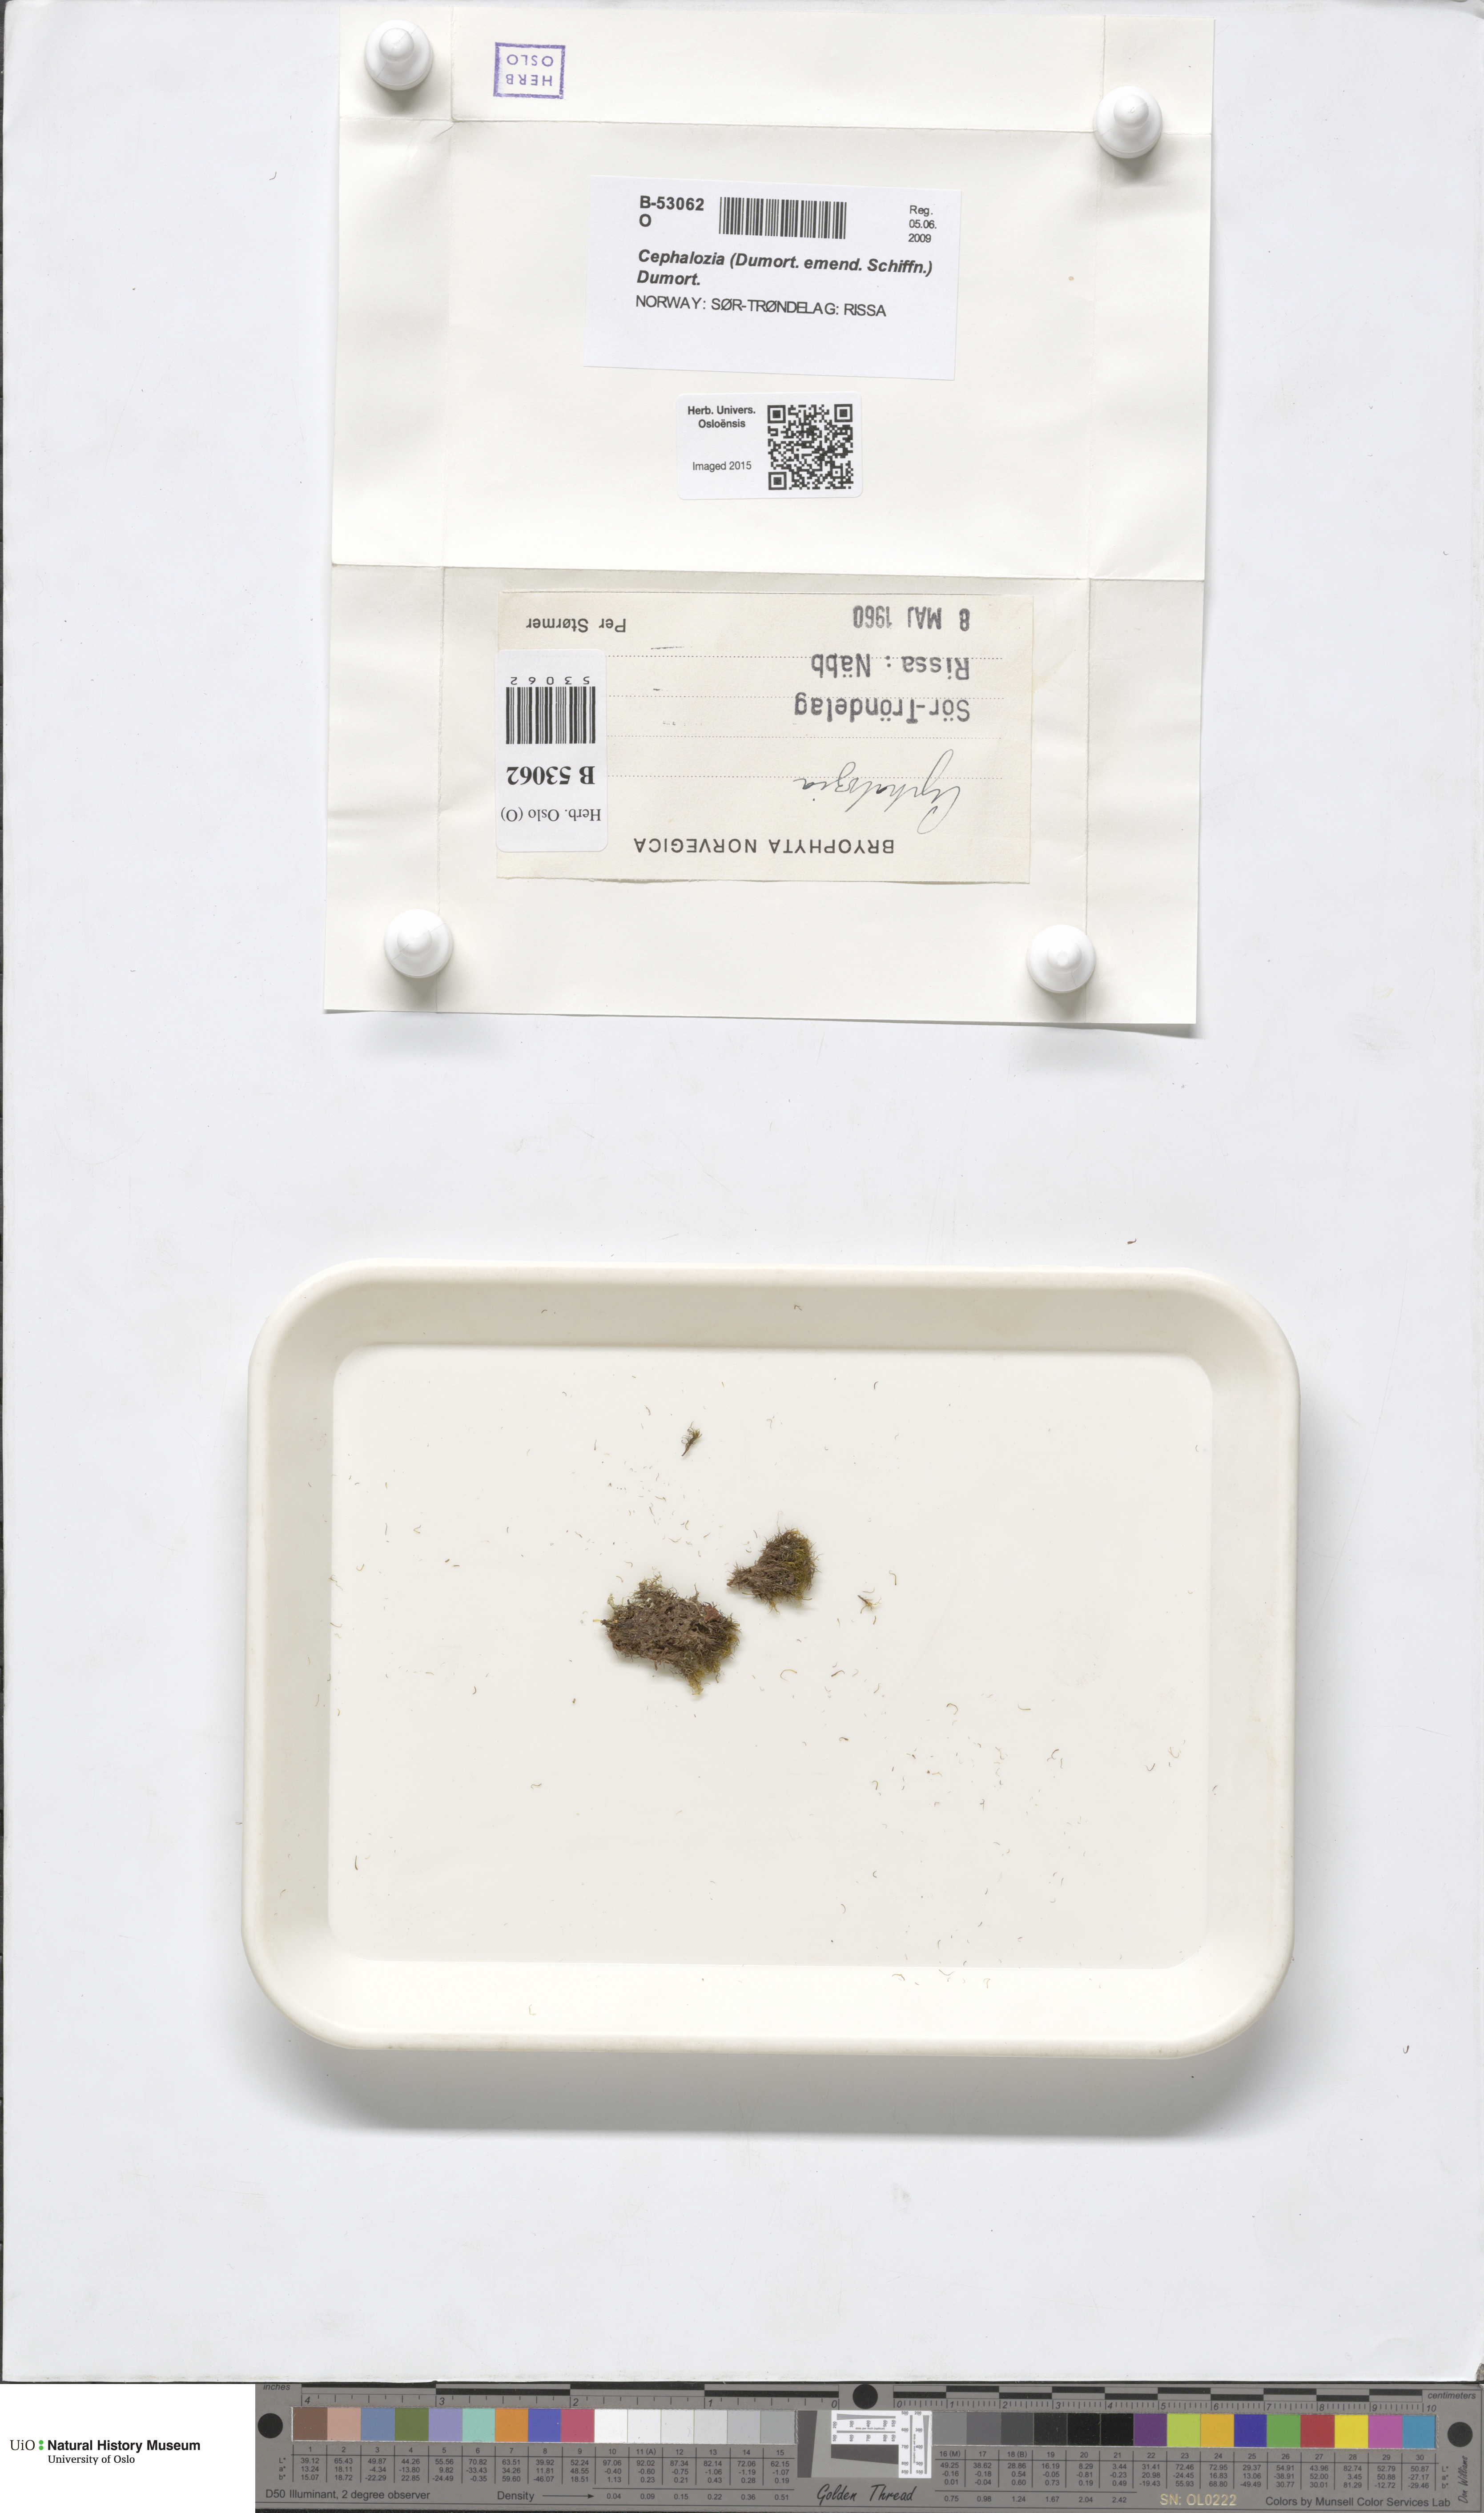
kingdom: Plantae
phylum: Marchantiophyta
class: Jungermanniopsida
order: Jungermanniales
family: Cephaloziaceae
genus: Cephalozia
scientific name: Cephalozia
